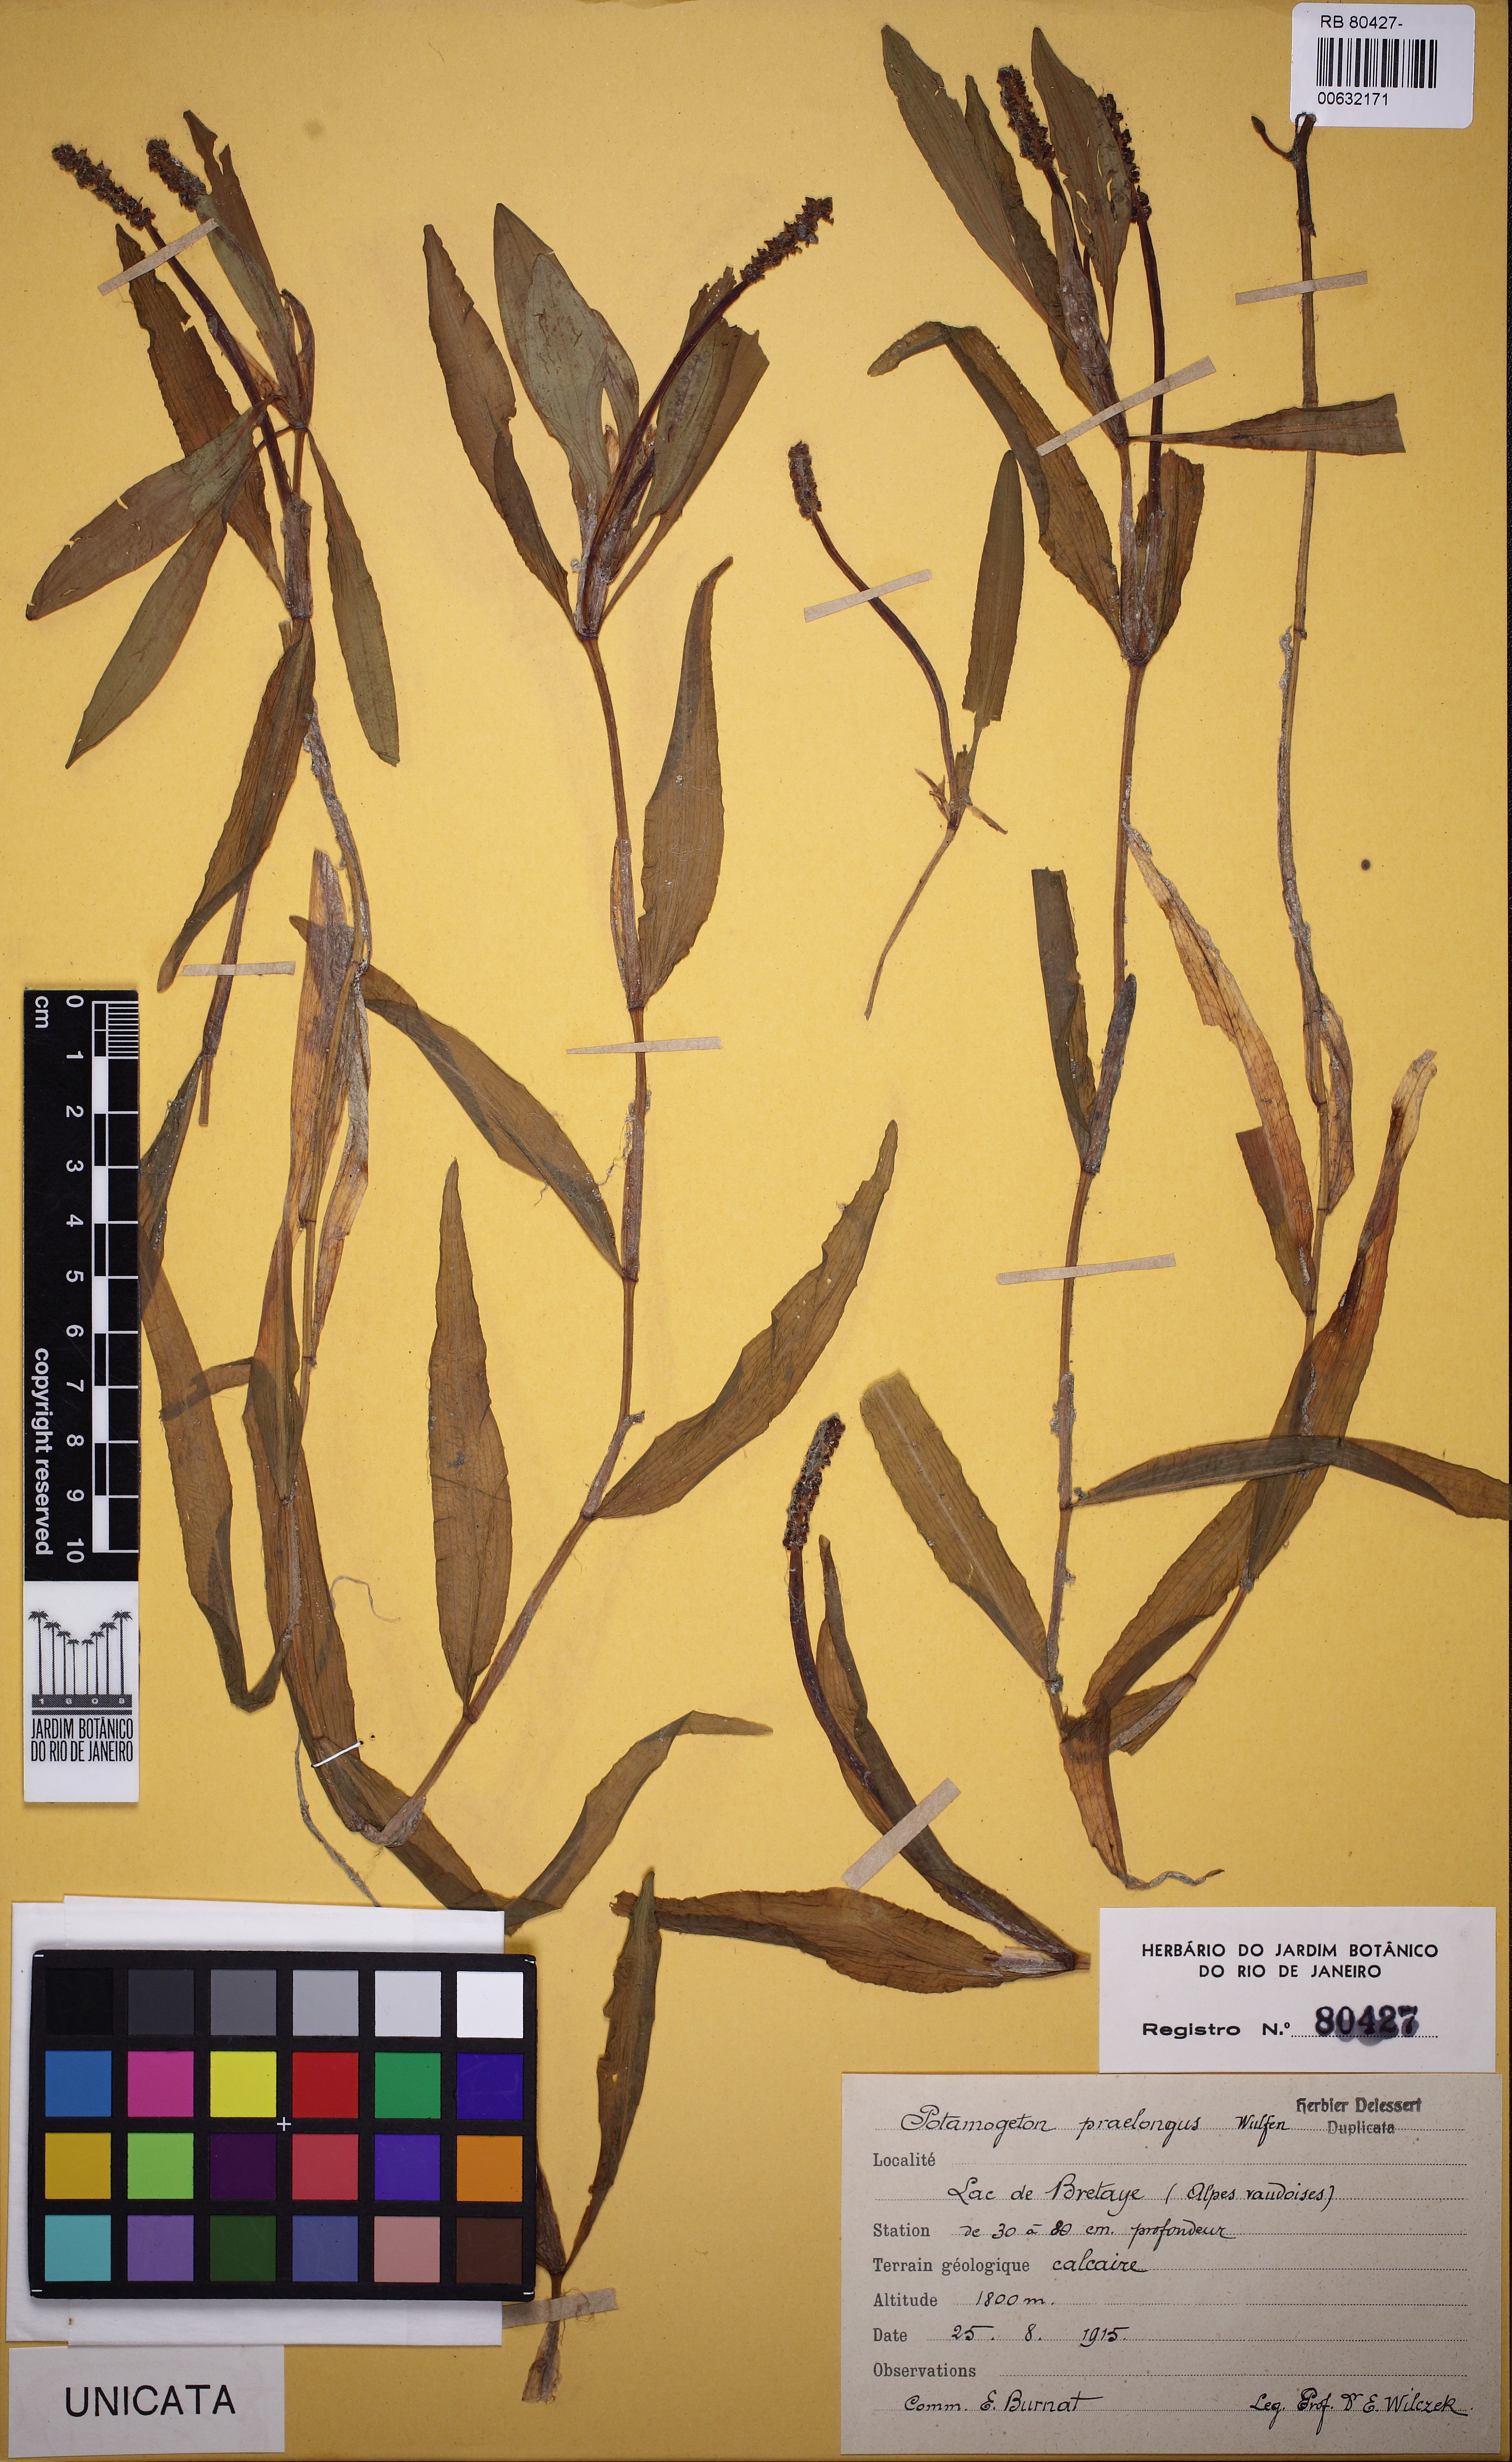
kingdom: Plantae
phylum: Tracheophyta
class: Liliopsida
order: Alismatales
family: Potamogetonaceae
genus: Potamogeton
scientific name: Potamogeton praelongus
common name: Long-stalked pondweed
